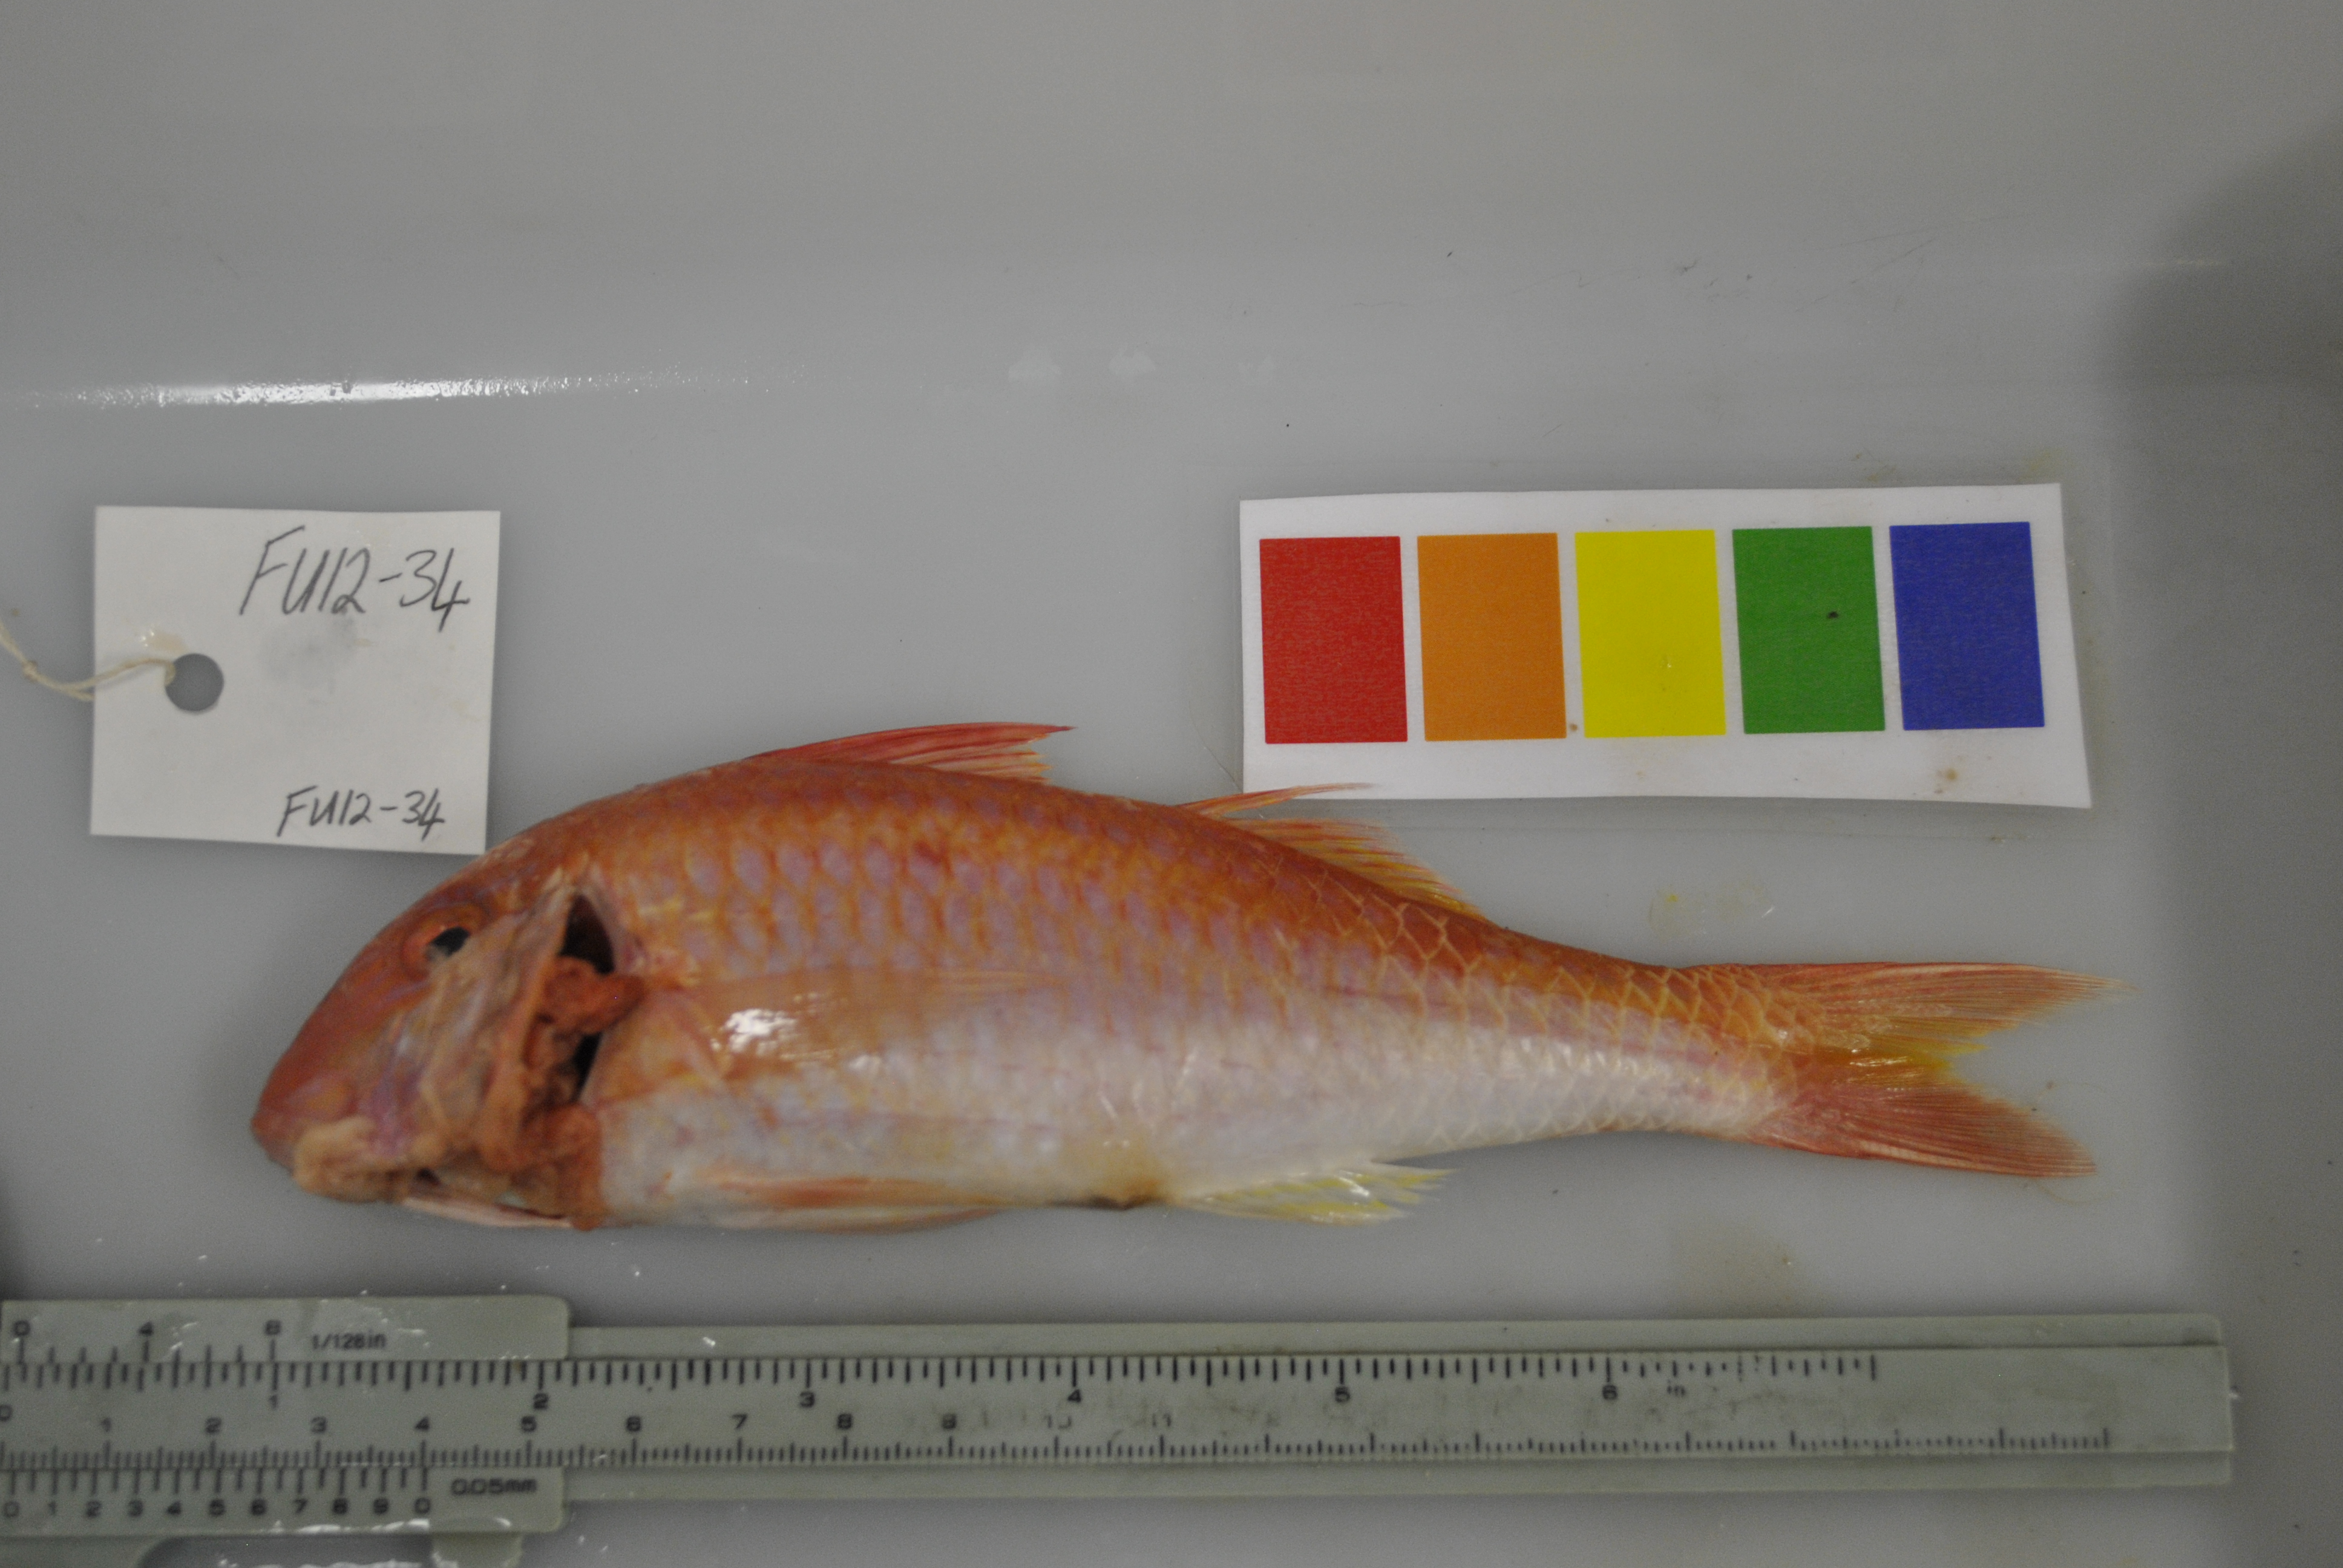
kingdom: Animalia
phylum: Chordata
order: Perciformes
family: Mullidae
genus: Parupeneus
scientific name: Parupeneus heptacanthus
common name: Cinnabar goatfish
